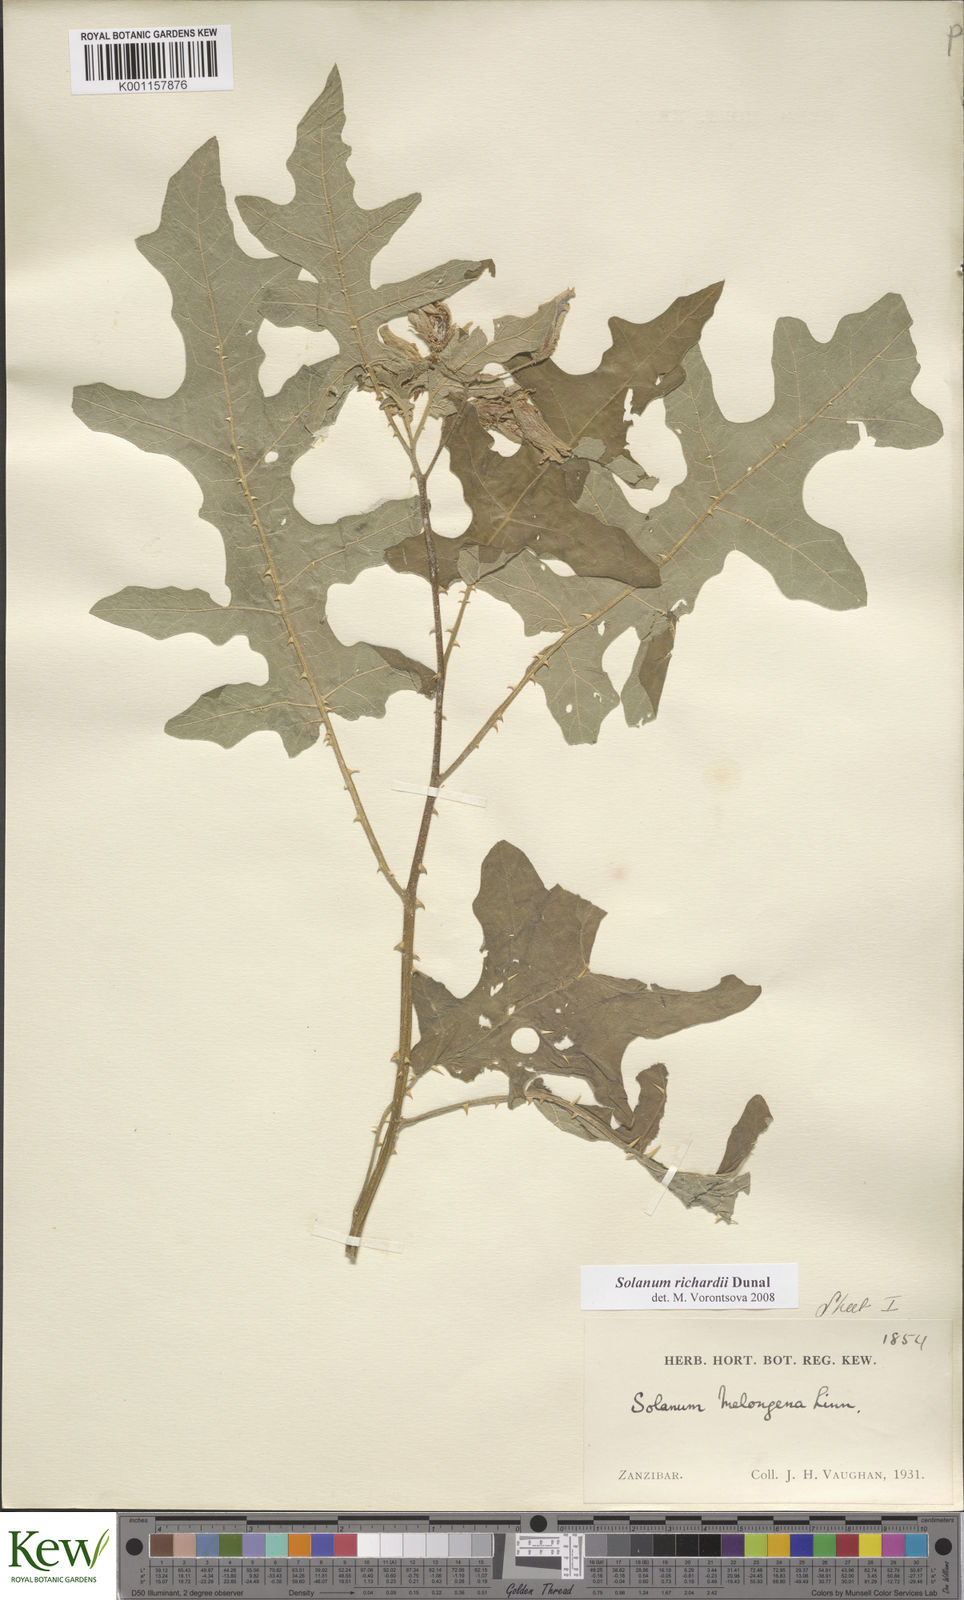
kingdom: Plantae
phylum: Tracheophyta
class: Magnoliopsida
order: Solanales
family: Solanaceae
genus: Solanum
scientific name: Solanum richardii
